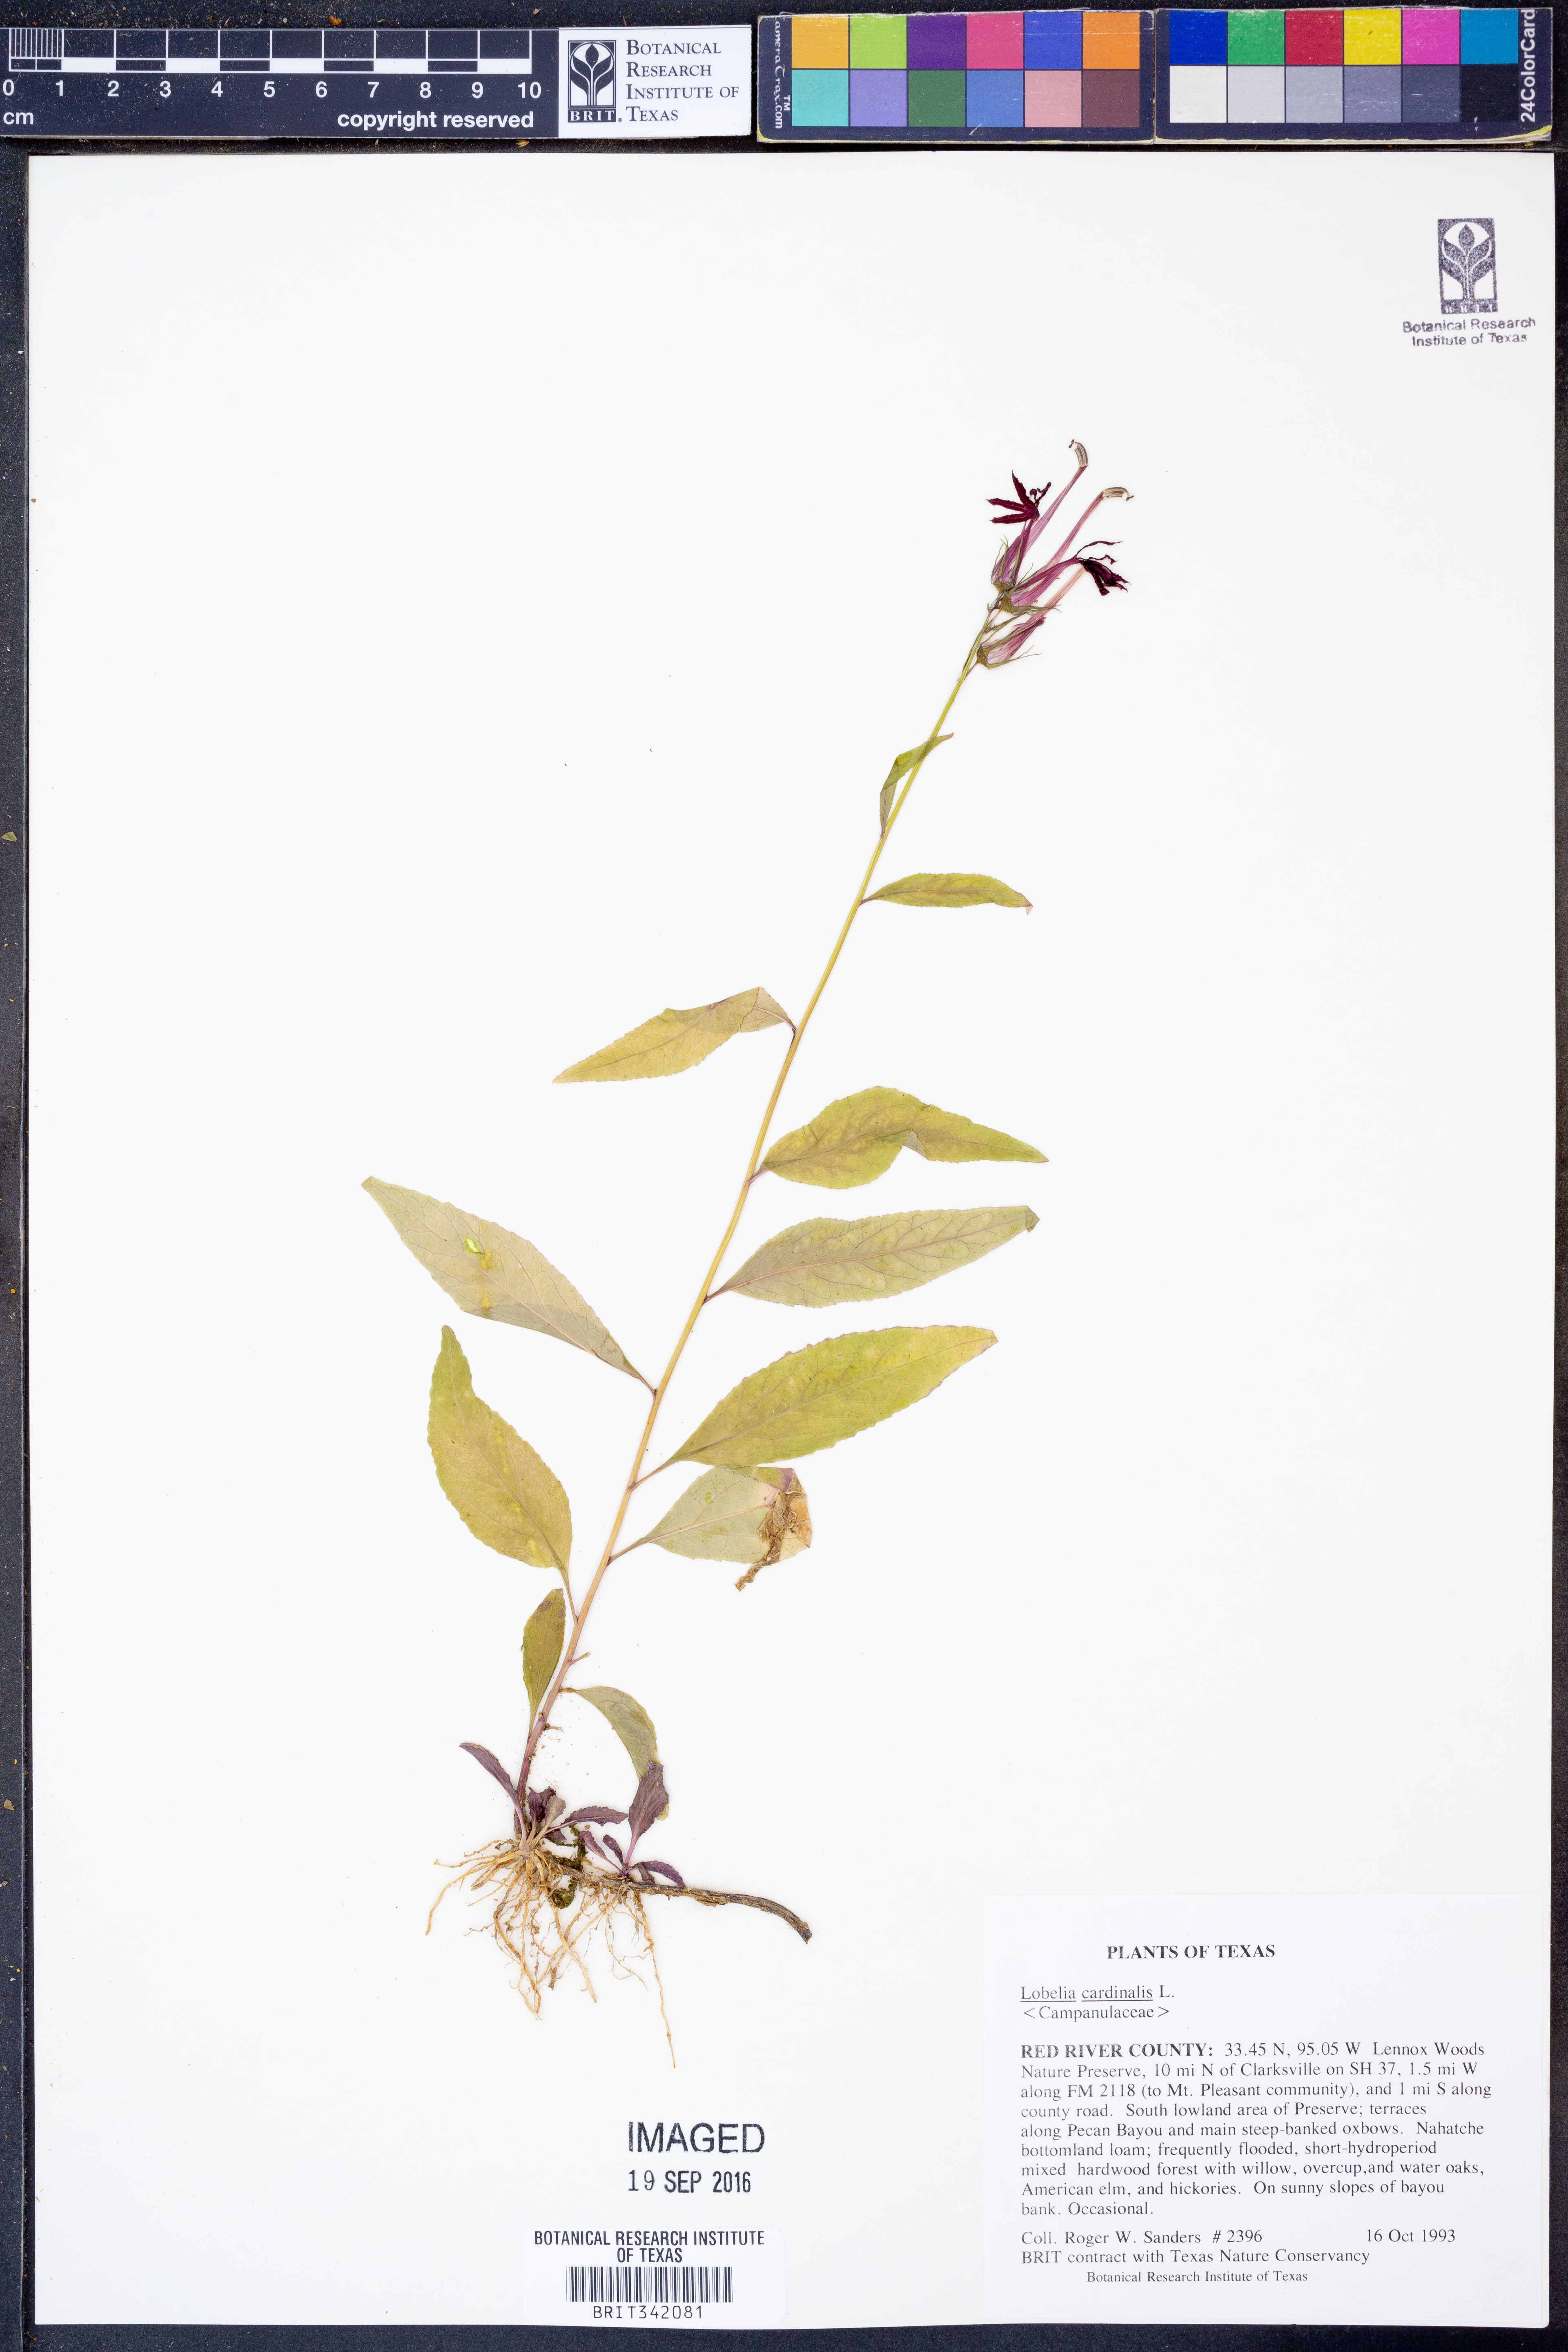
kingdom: Plantae
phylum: Tracheophyta
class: Magnoliopsida
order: Asterales
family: Campanulaceae
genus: Lobelia
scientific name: Lobelia cardinalis
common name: Cardinal flower
